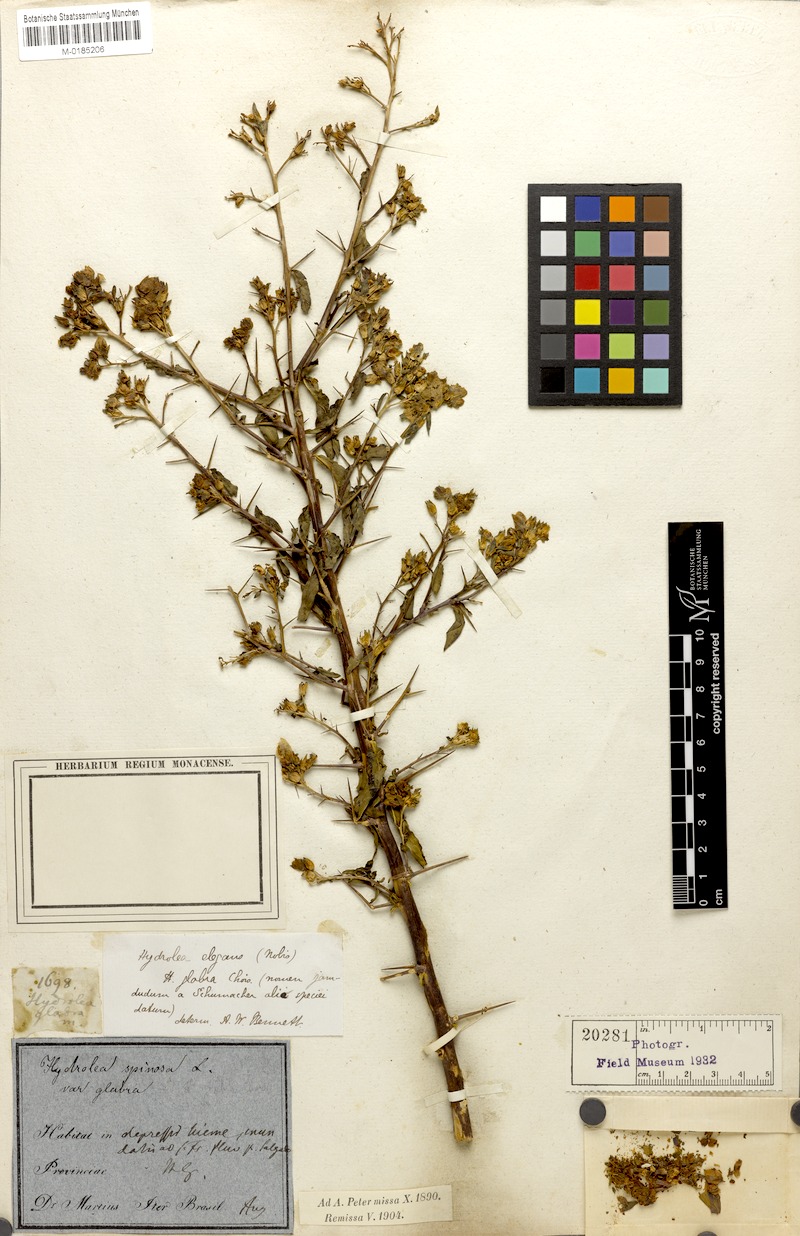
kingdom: Plantae
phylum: Tracheophyta
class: Magnoliopsida
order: Solanales
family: Hydroleaceae
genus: Hydrolea
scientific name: Hydrolea spinosa
